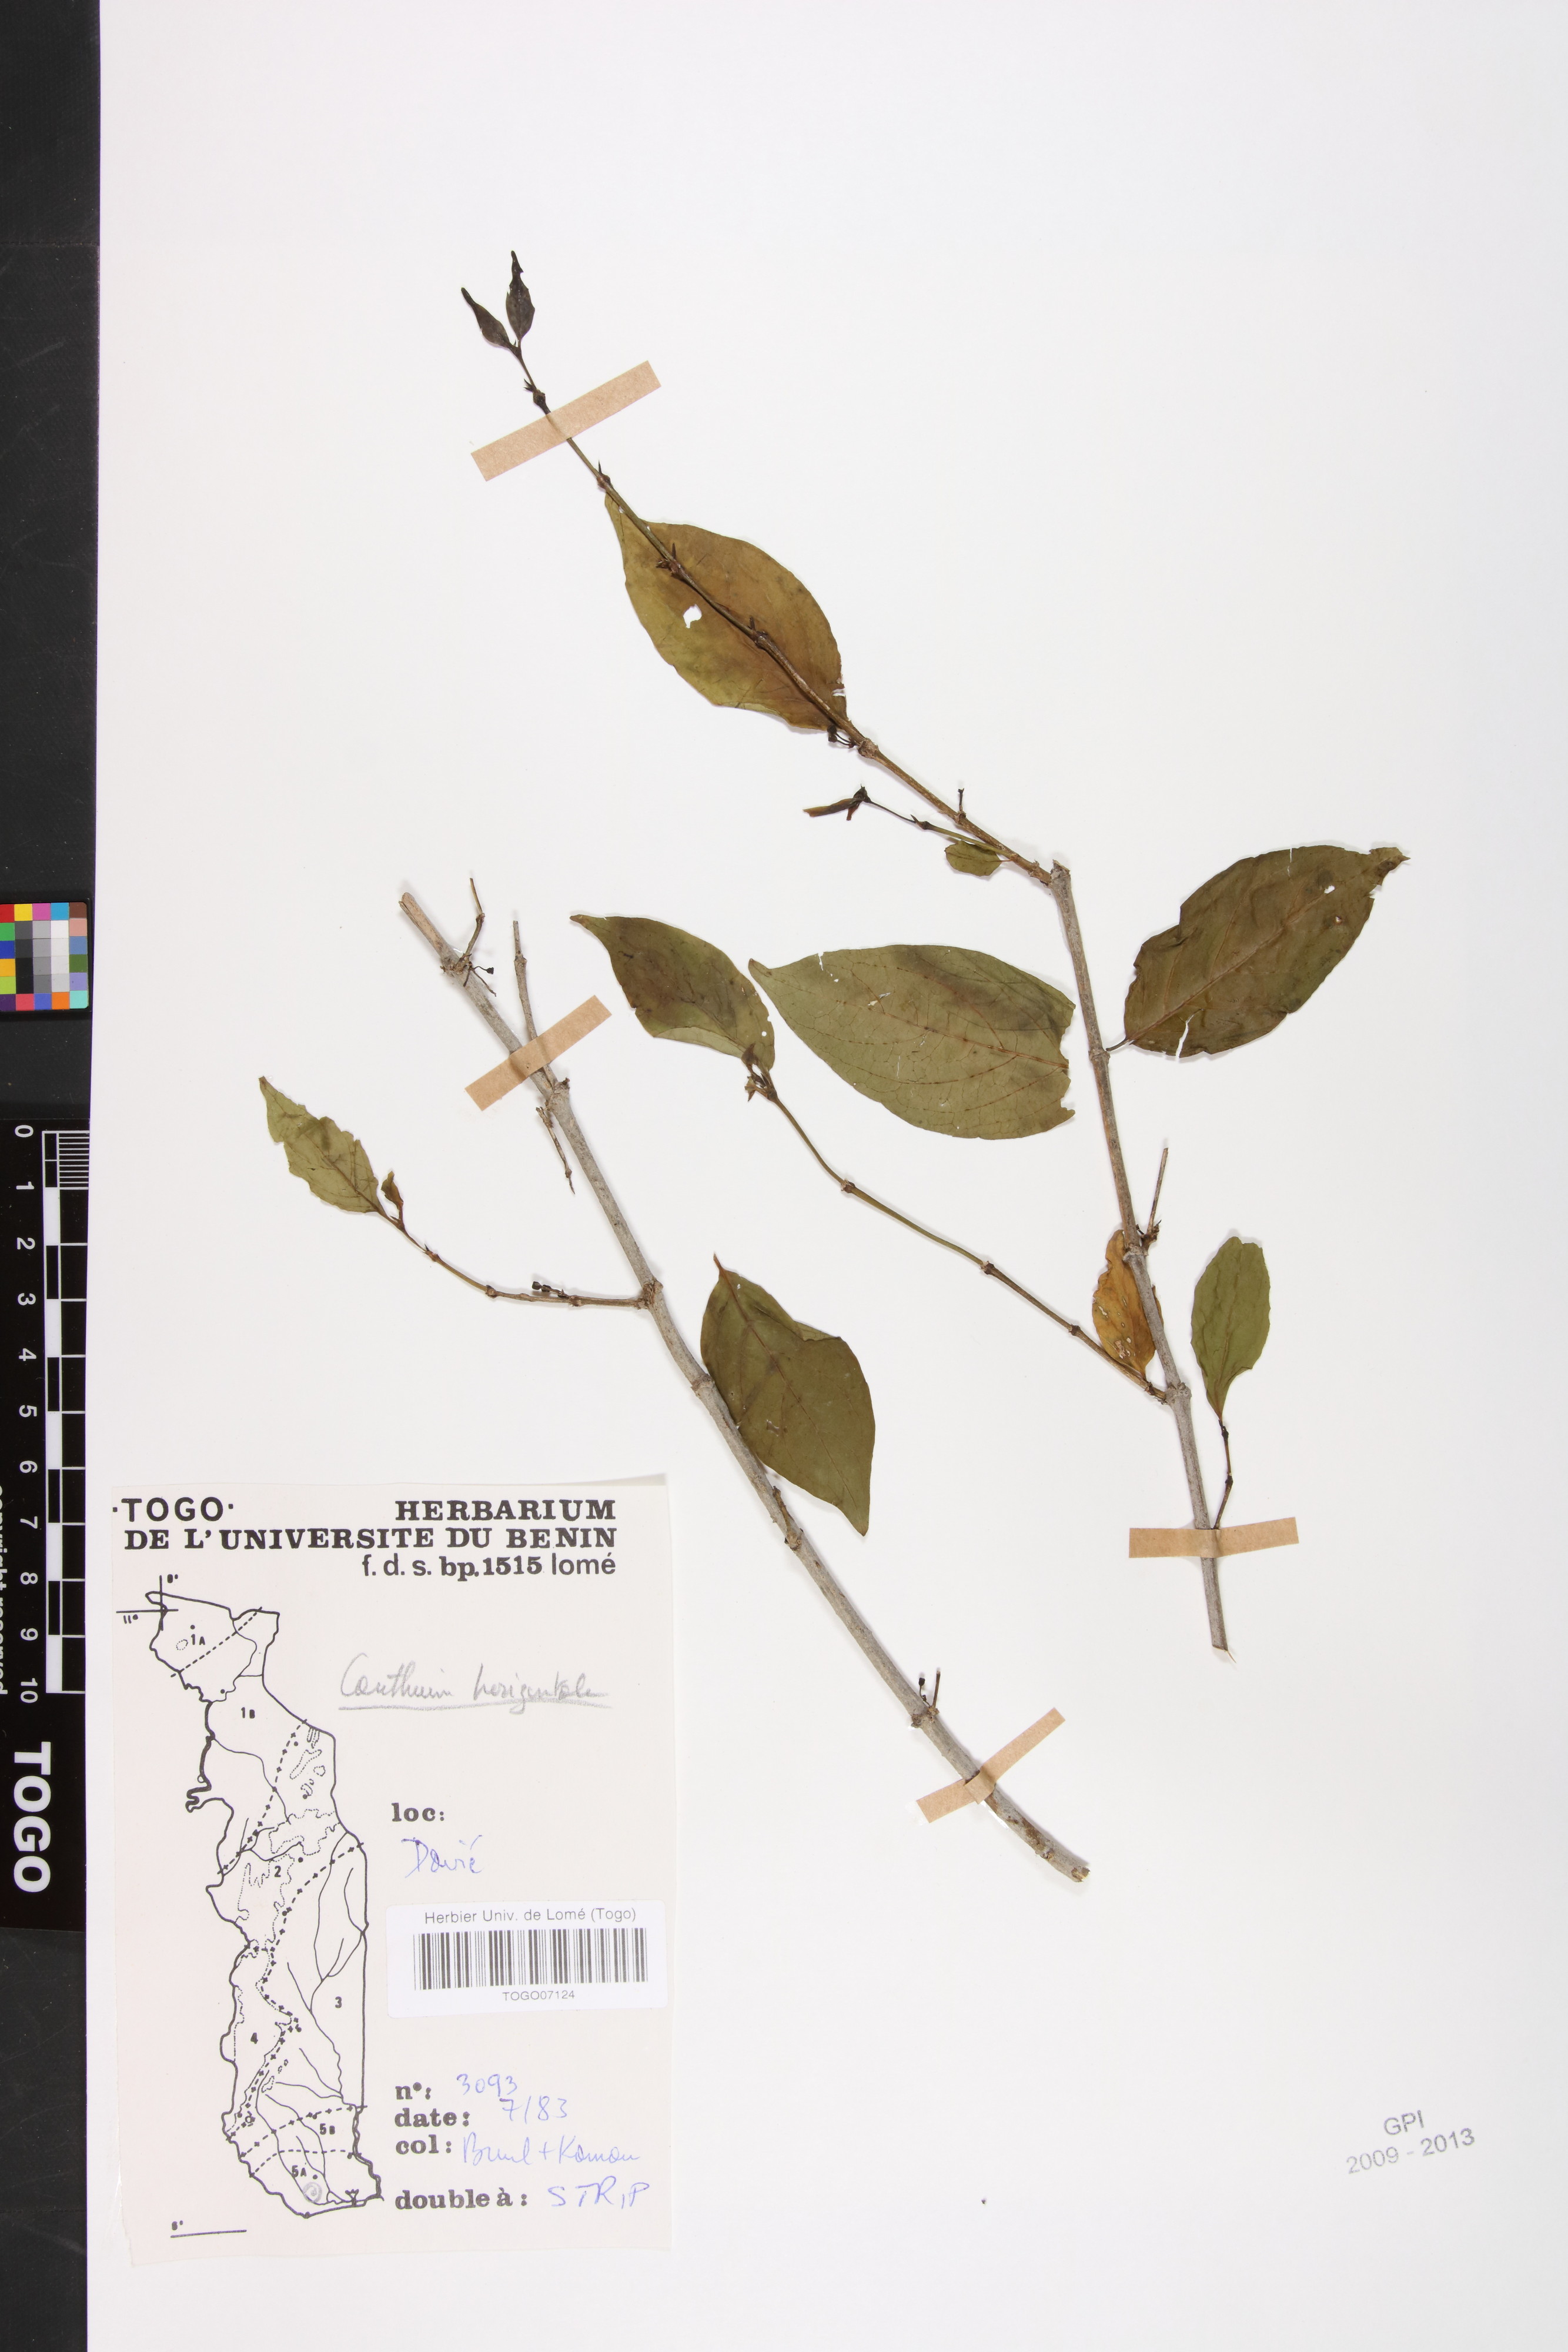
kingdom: Plantae
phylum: Tracheophyta
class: Magnoliopsida
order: Gentianales
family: Rubiaceae
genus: Psydrax
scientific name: Psydrax horizontalis
